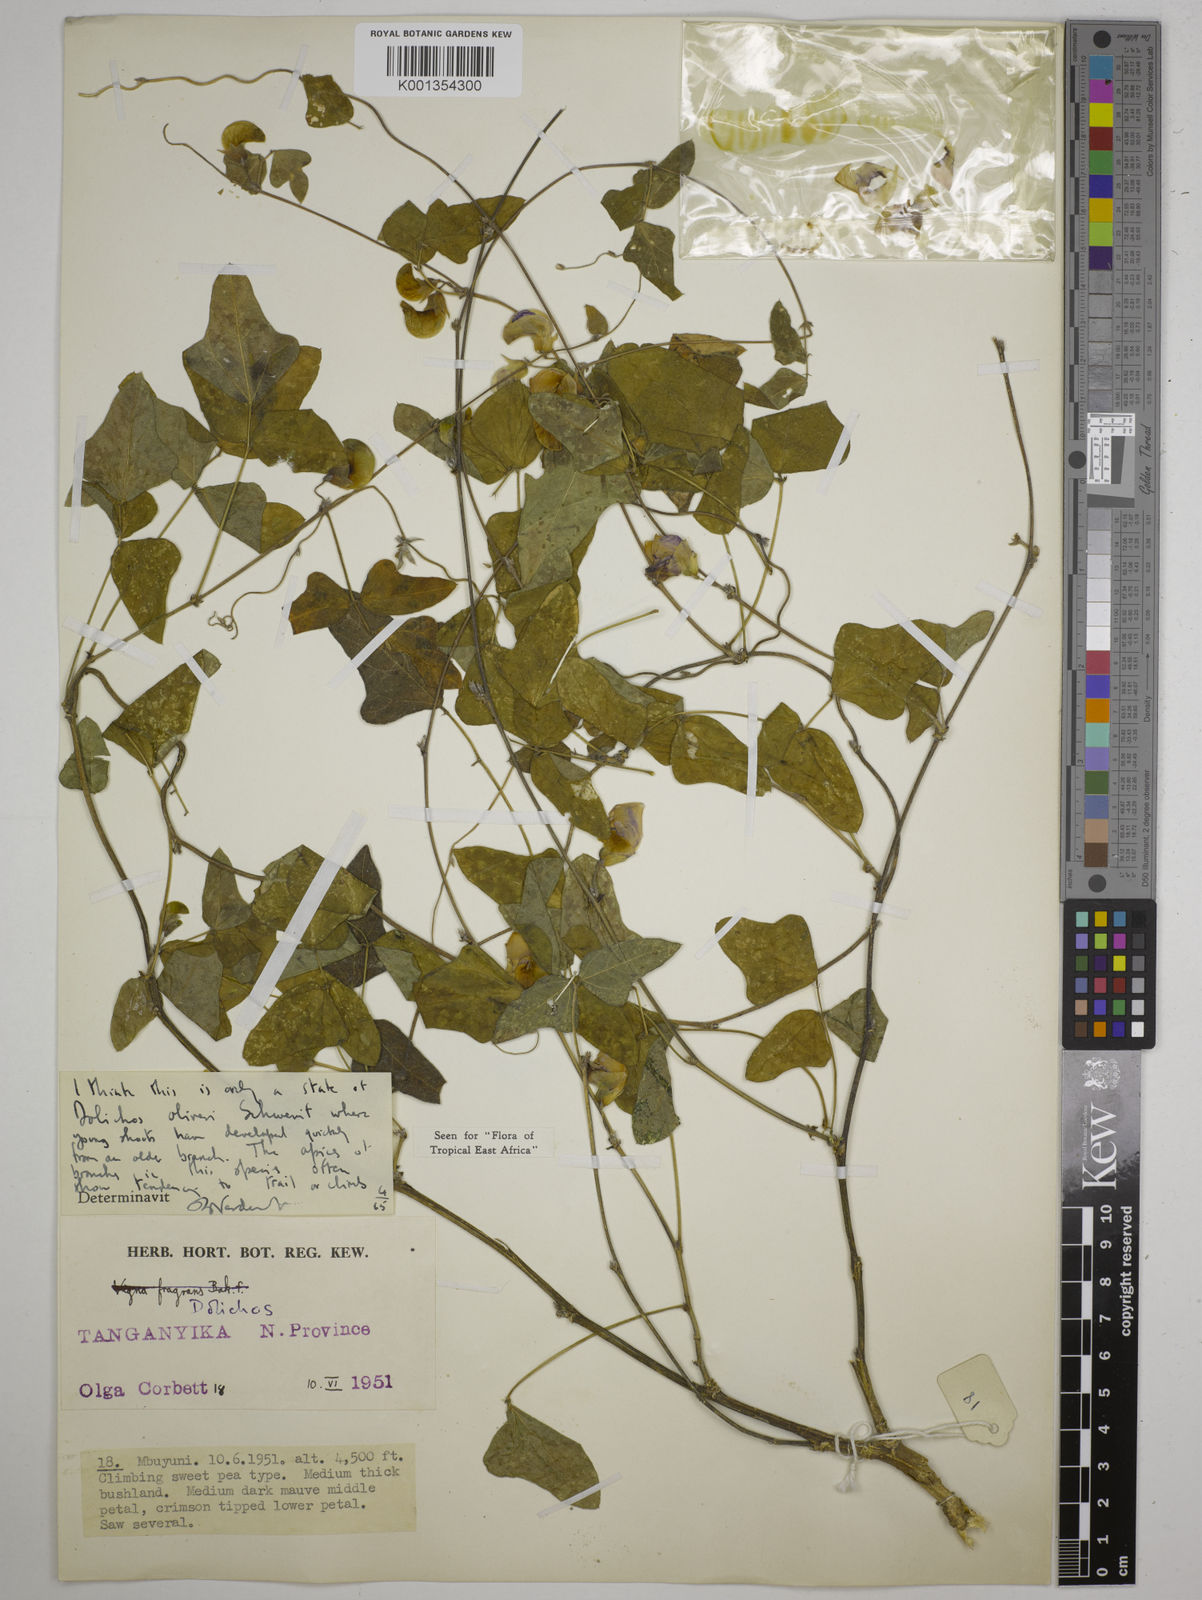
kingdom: Plantae
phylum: Tracheophyta
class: Magnoliopsida
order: Fabales
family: Fabaceae
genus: Dolichos
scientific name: Dolichos oliveri
